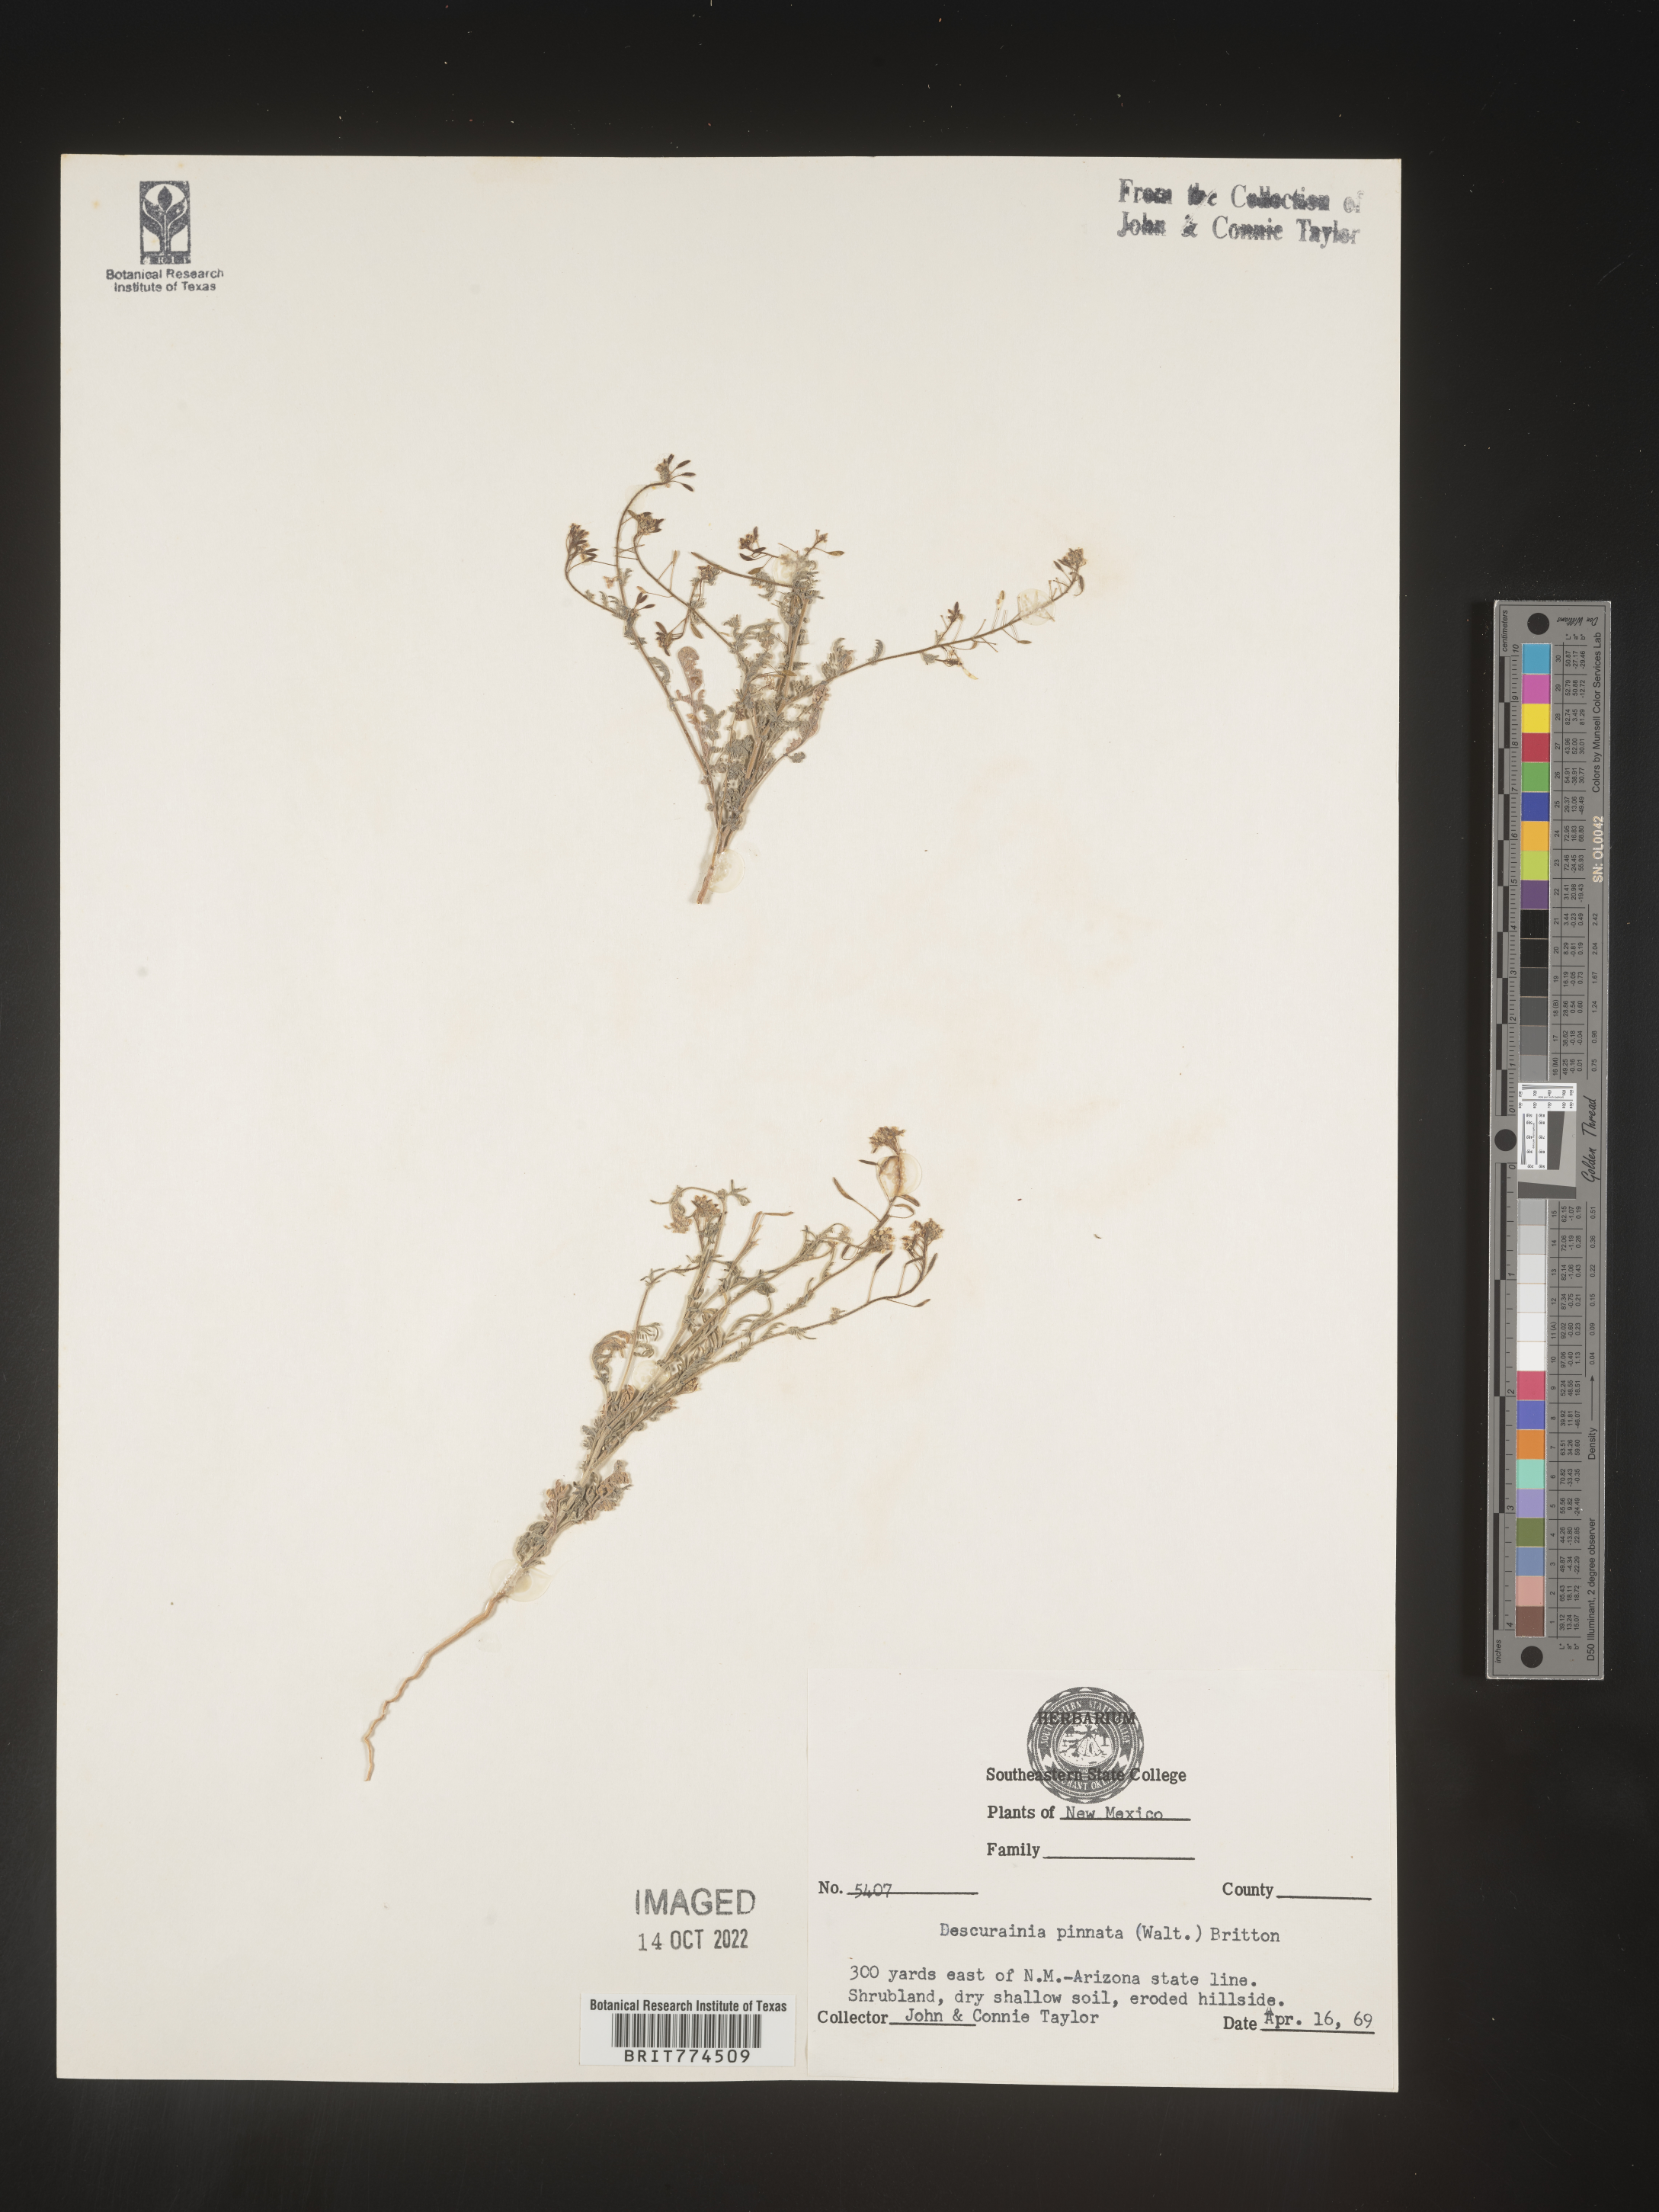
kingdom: Plantae
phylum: Tracheophyta
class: Magnoliopsida
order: Brassicales
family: Brassicaceae
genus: Descurainia
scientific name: Descurainia pinnata
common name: Western tansy mustard
